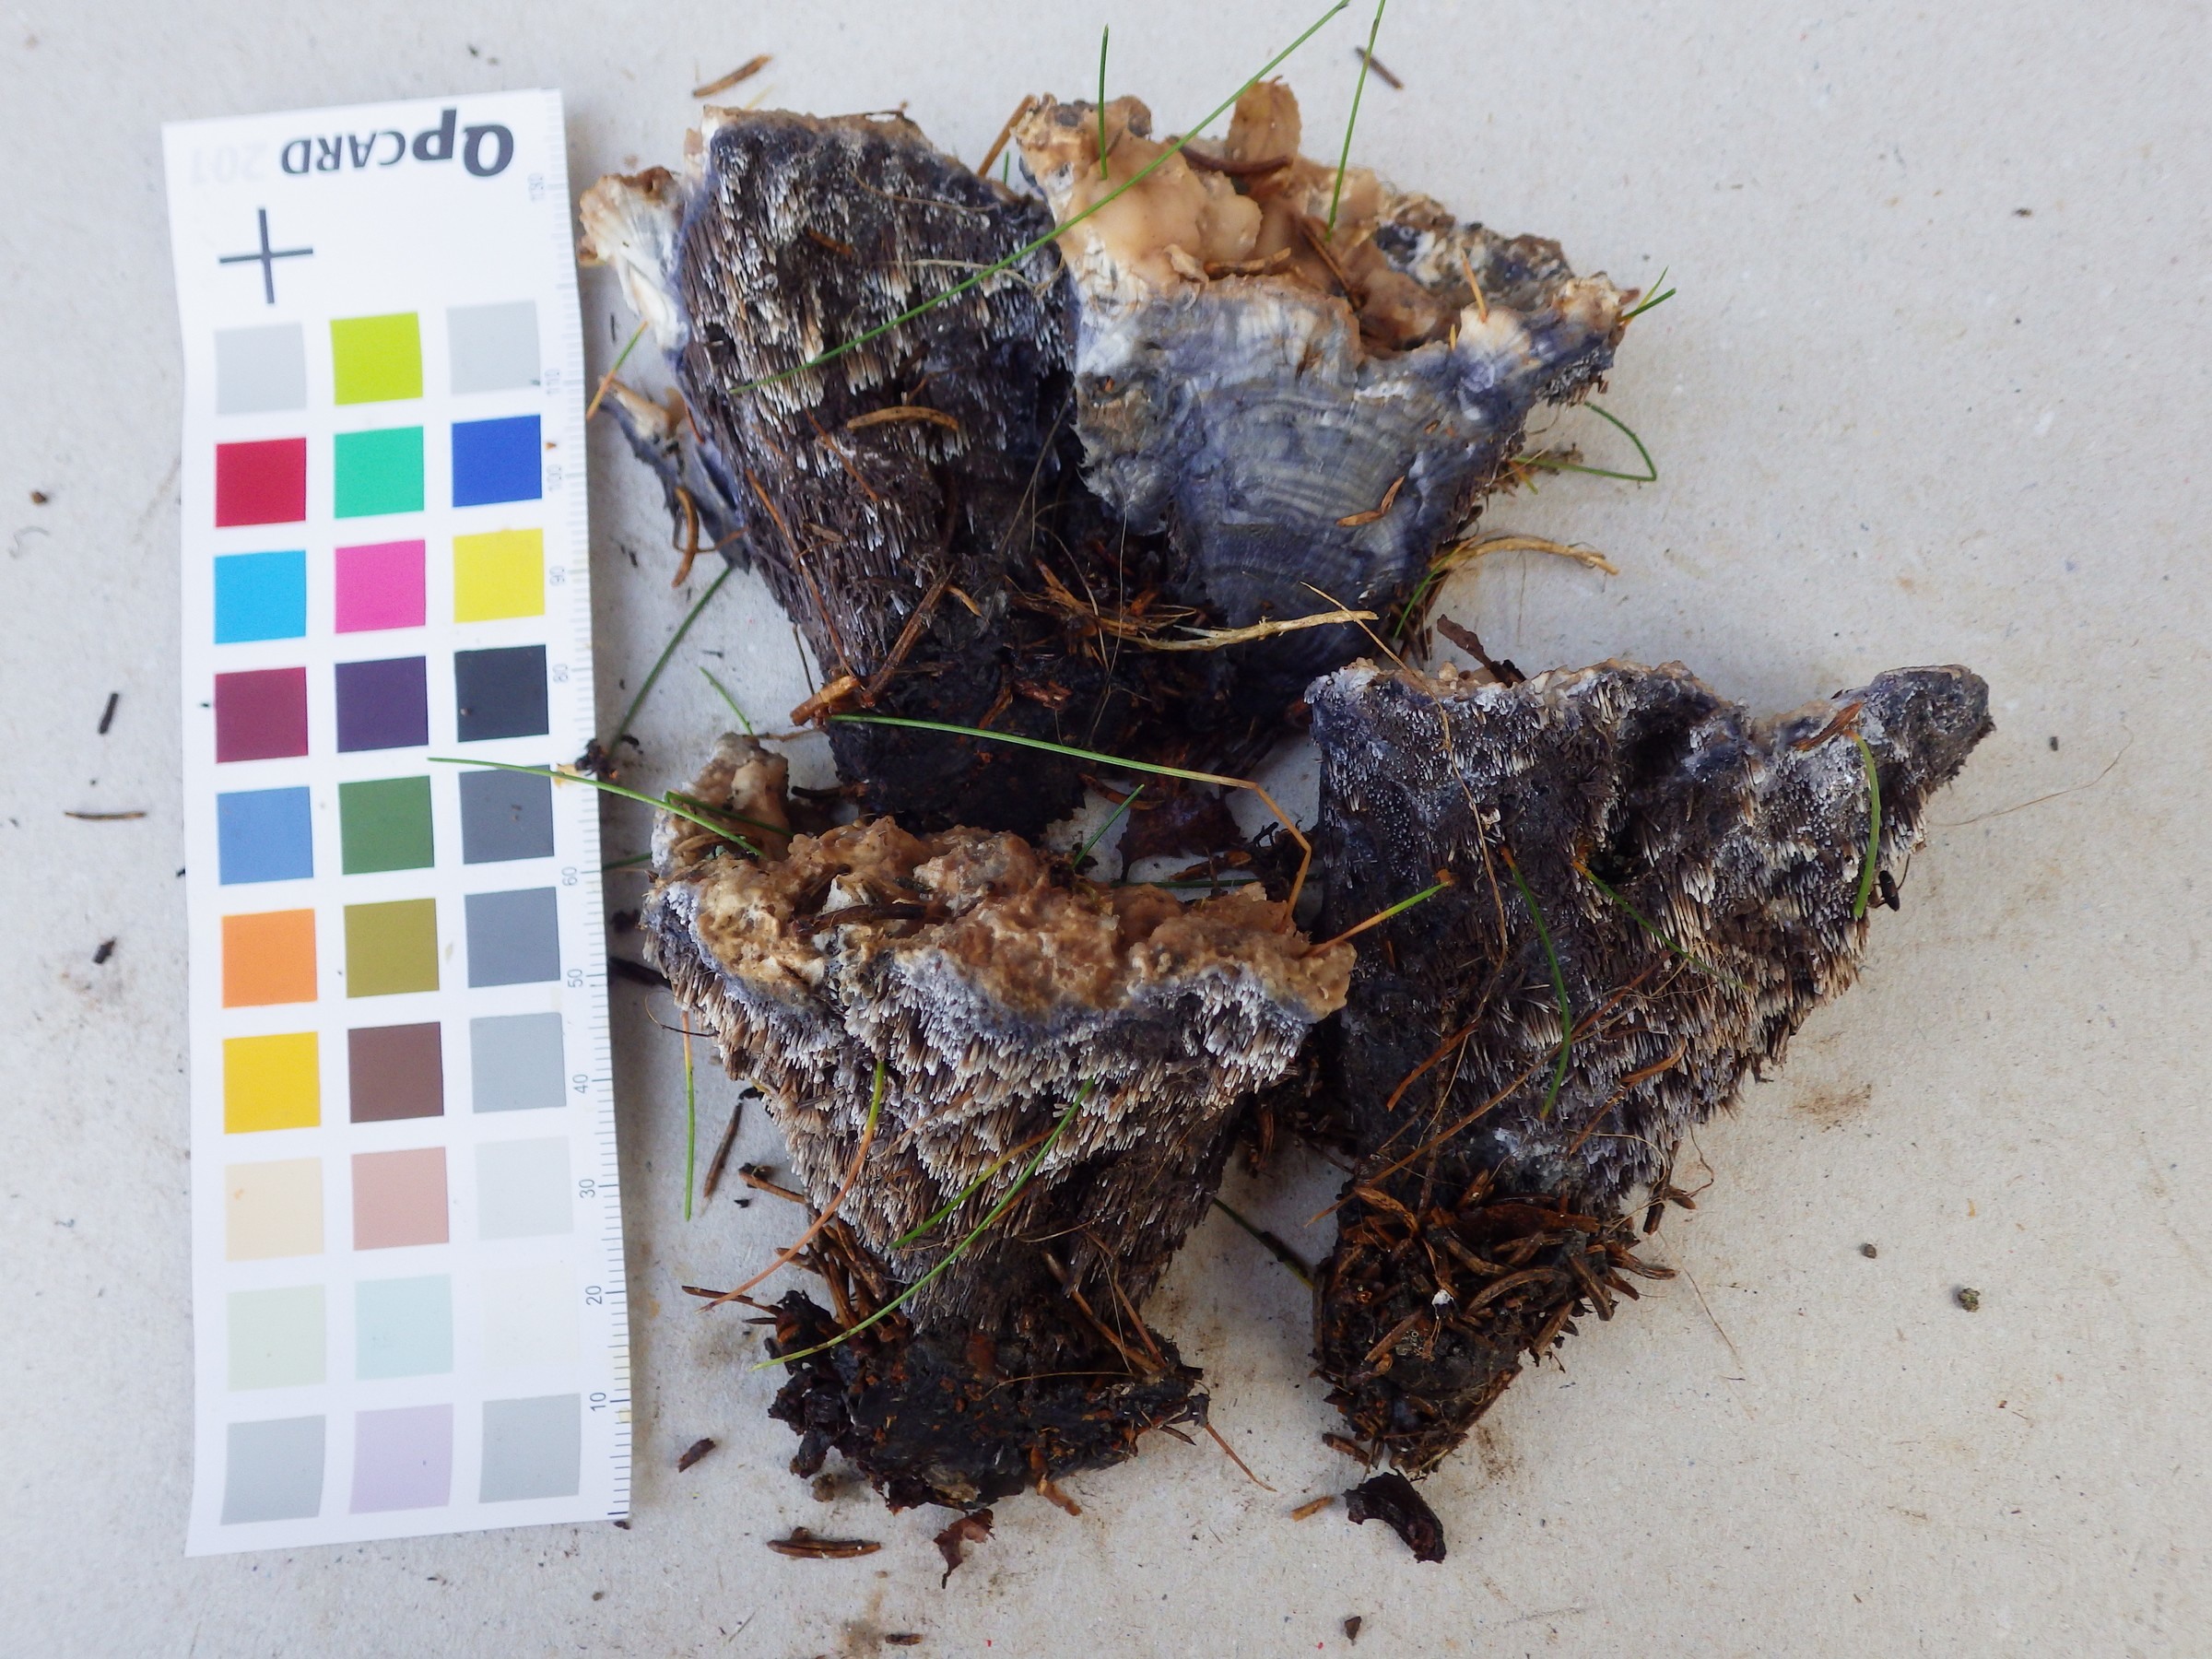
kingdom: Fungi
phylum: Basidiomycota
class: Agaricomycetes
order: Thelephorales
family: Bankeraceae
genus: Hydnellum
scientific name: Hydnellum suaveolens
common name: Sweetgrass hydnellum
